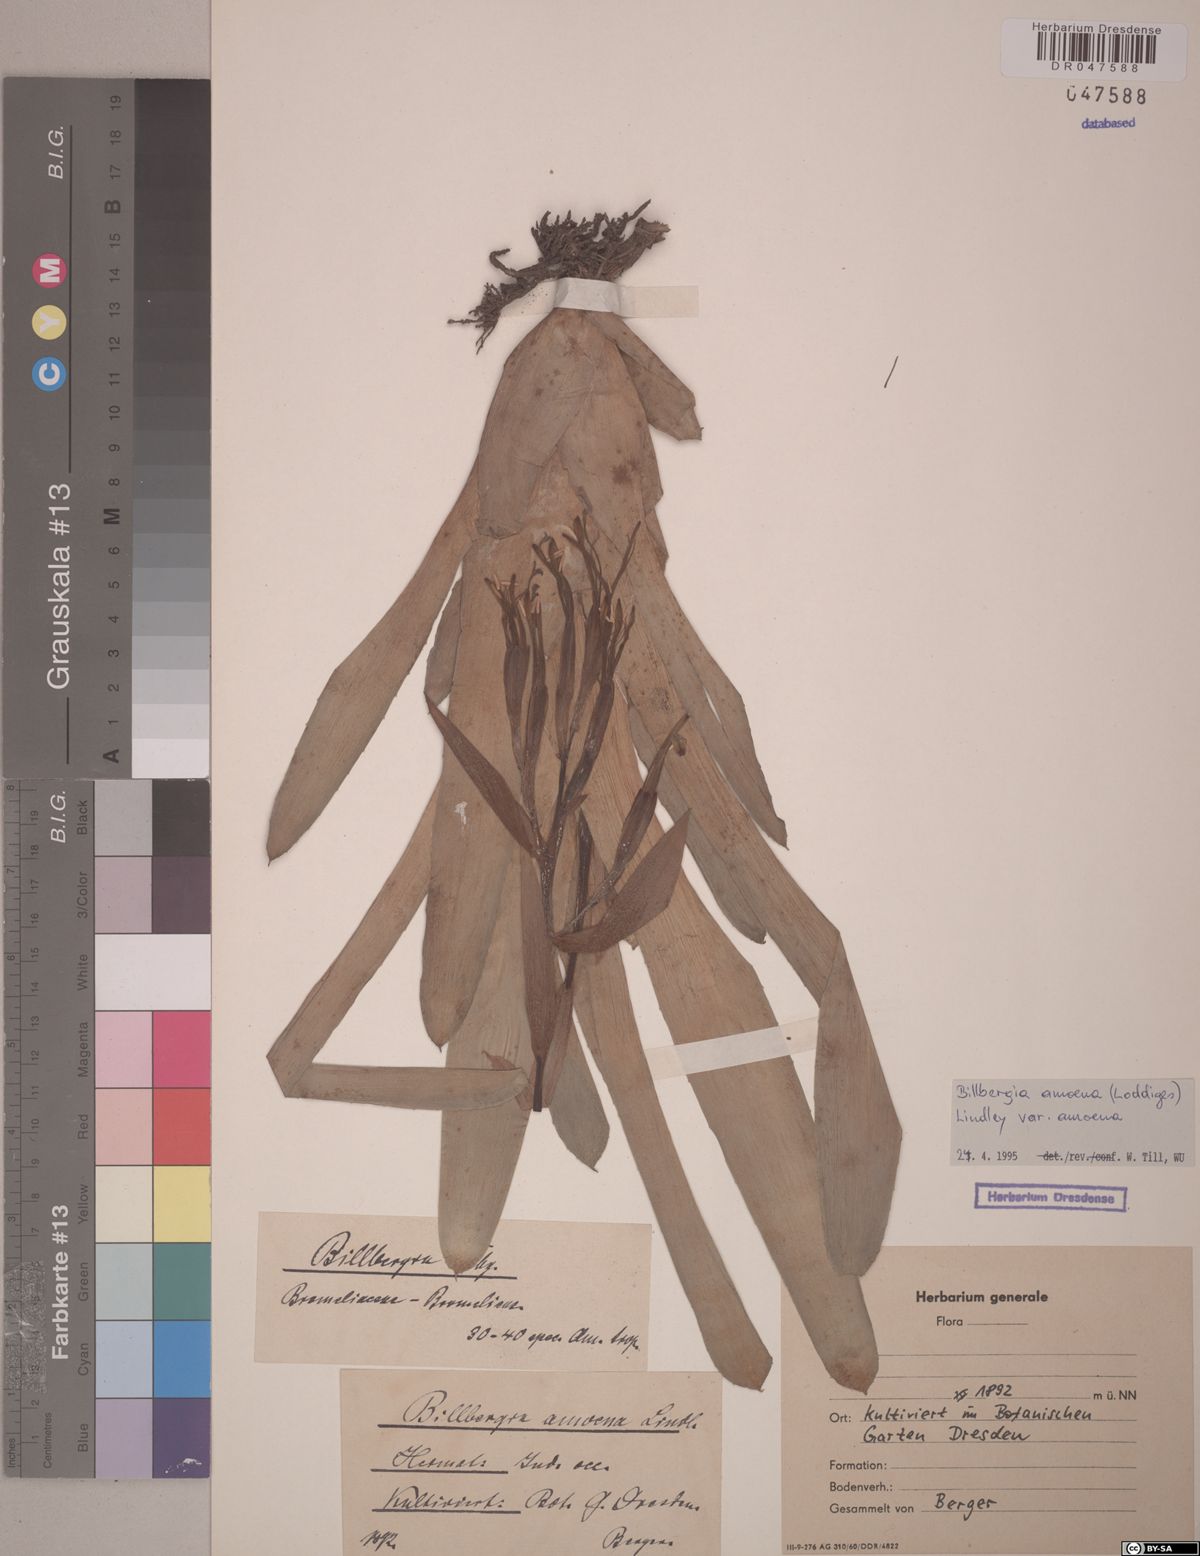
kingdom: Plantae
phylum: Tracheophyta
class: Liliopsida
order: Poales
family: Bromeliaceae
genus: Tillandsia
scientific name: Tillandsia tenuifolia
